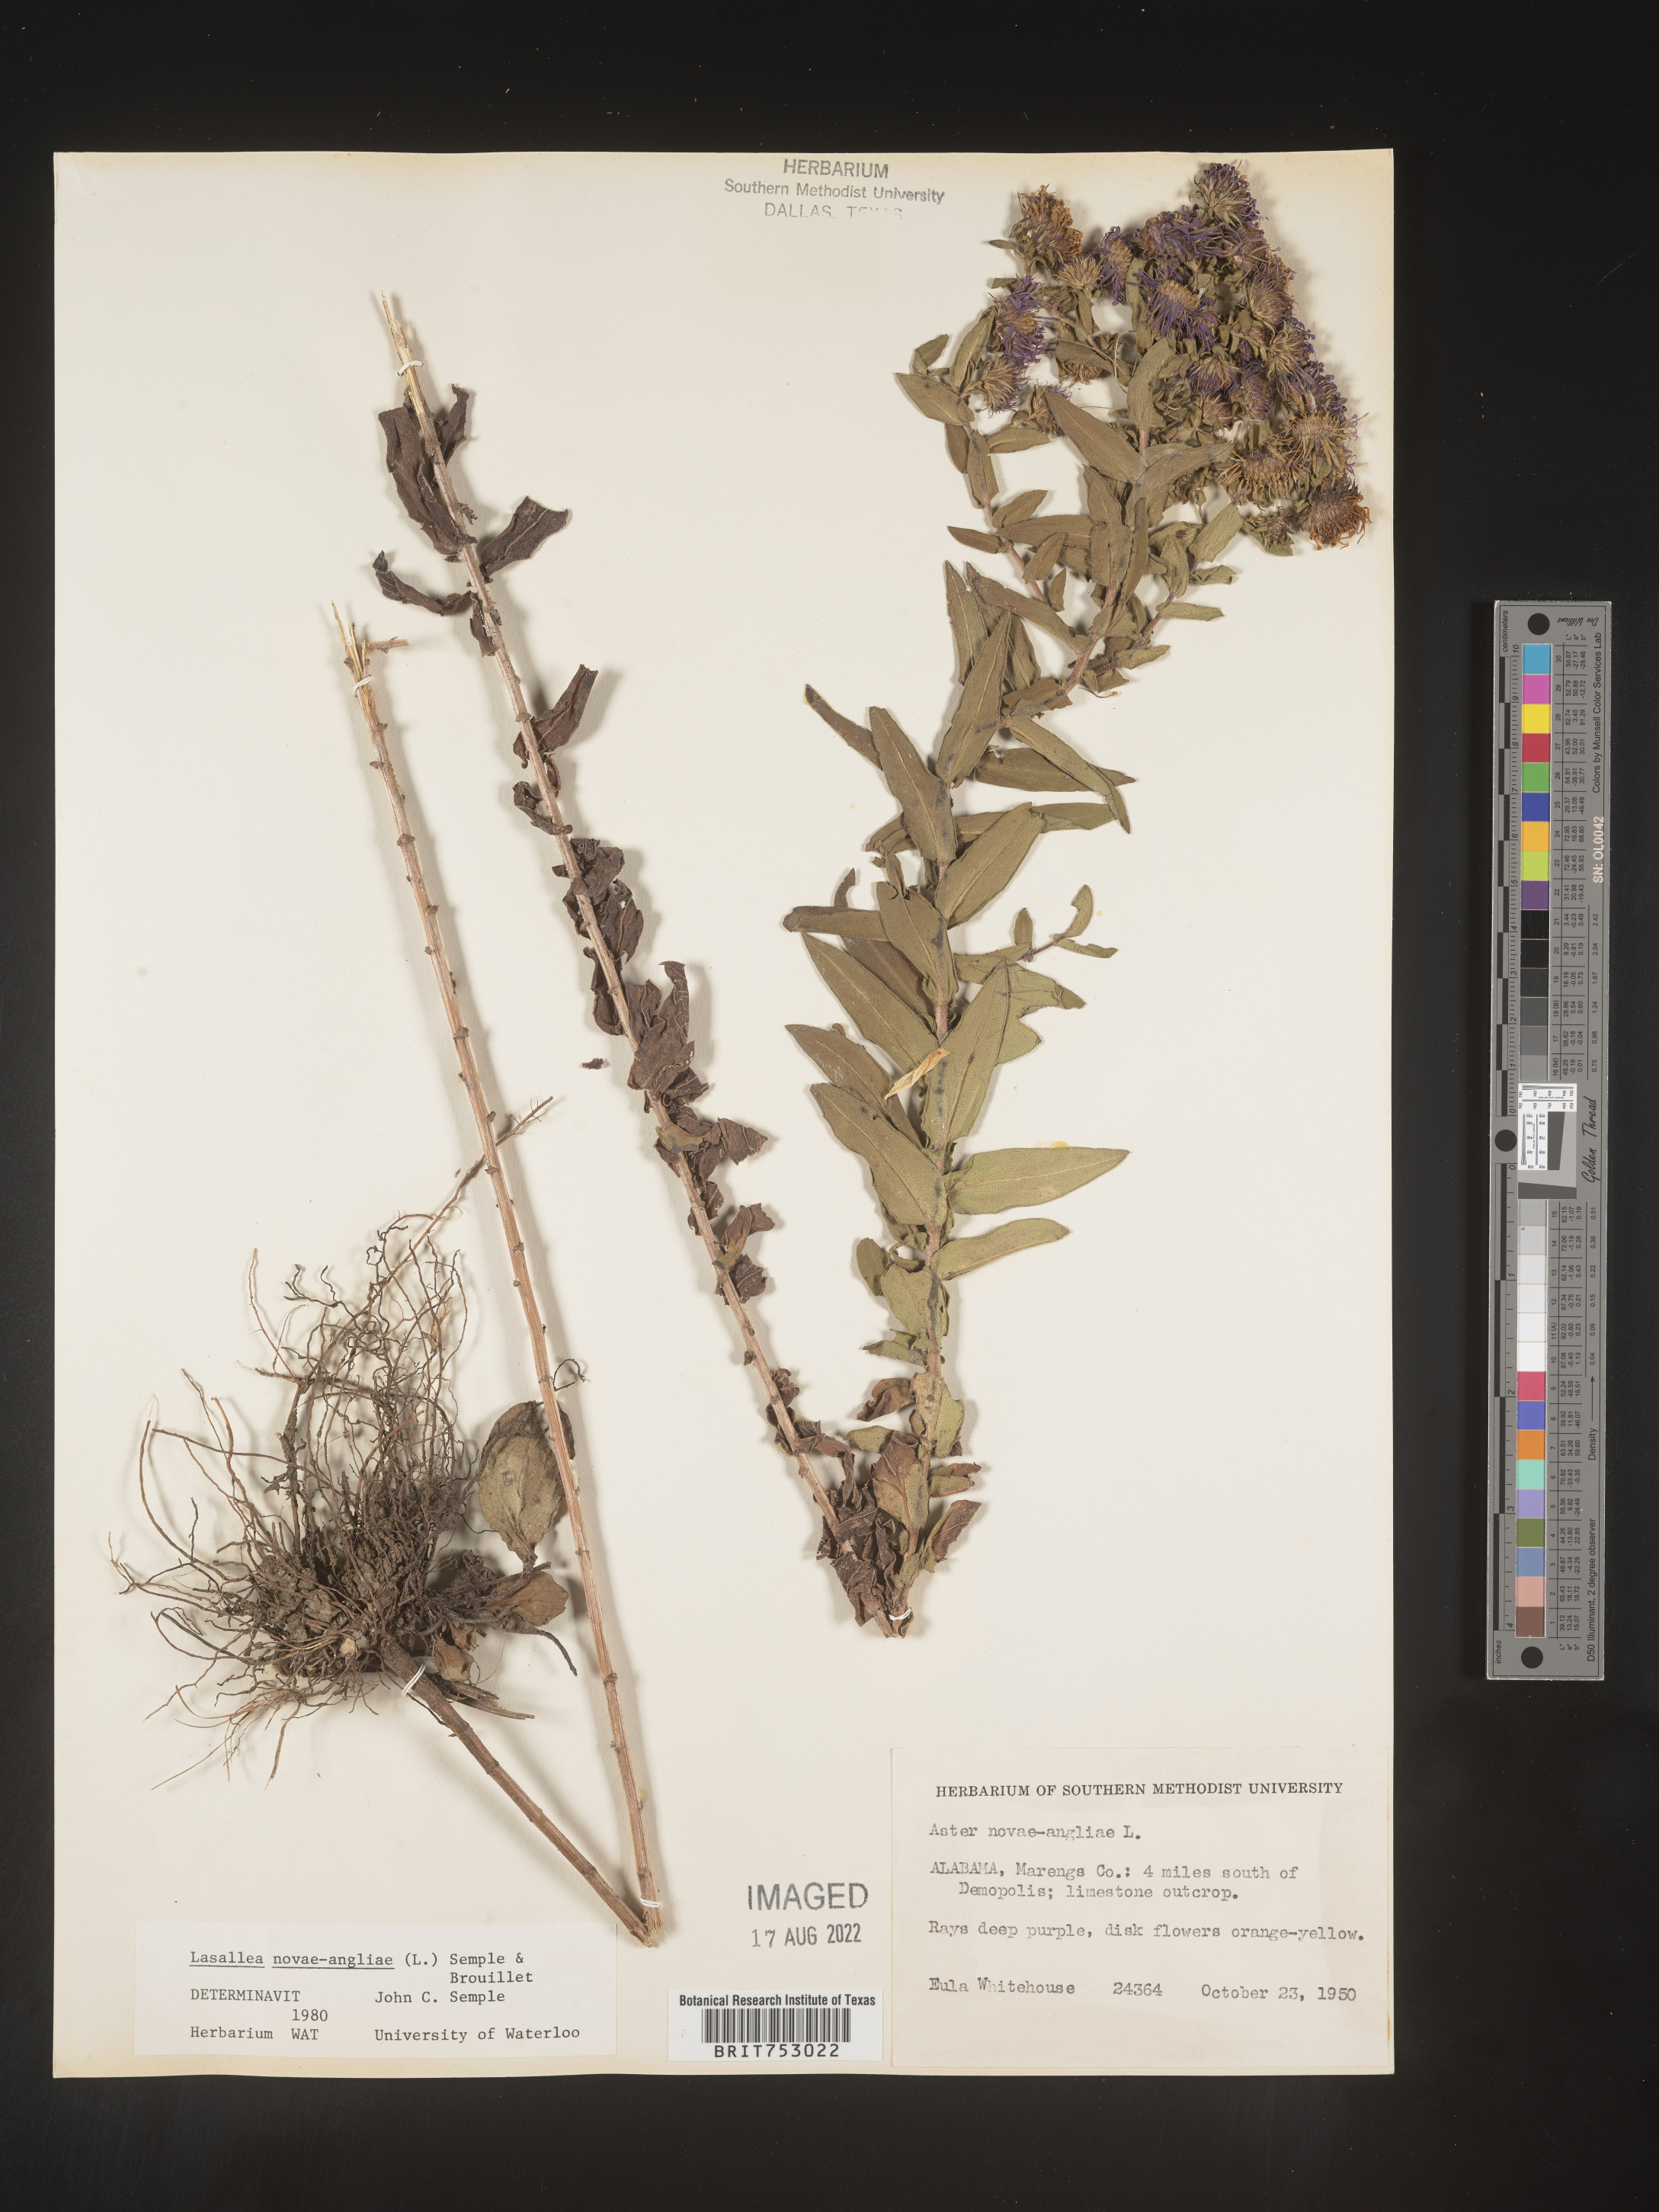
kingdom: Plantae
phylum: Tracheophyta
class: Magnoliopsida
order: Asterales
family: Asteraceae
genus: Symphyotrichum
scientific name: Symphyotrichum novae-angliae
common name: Michaelmas daisy
